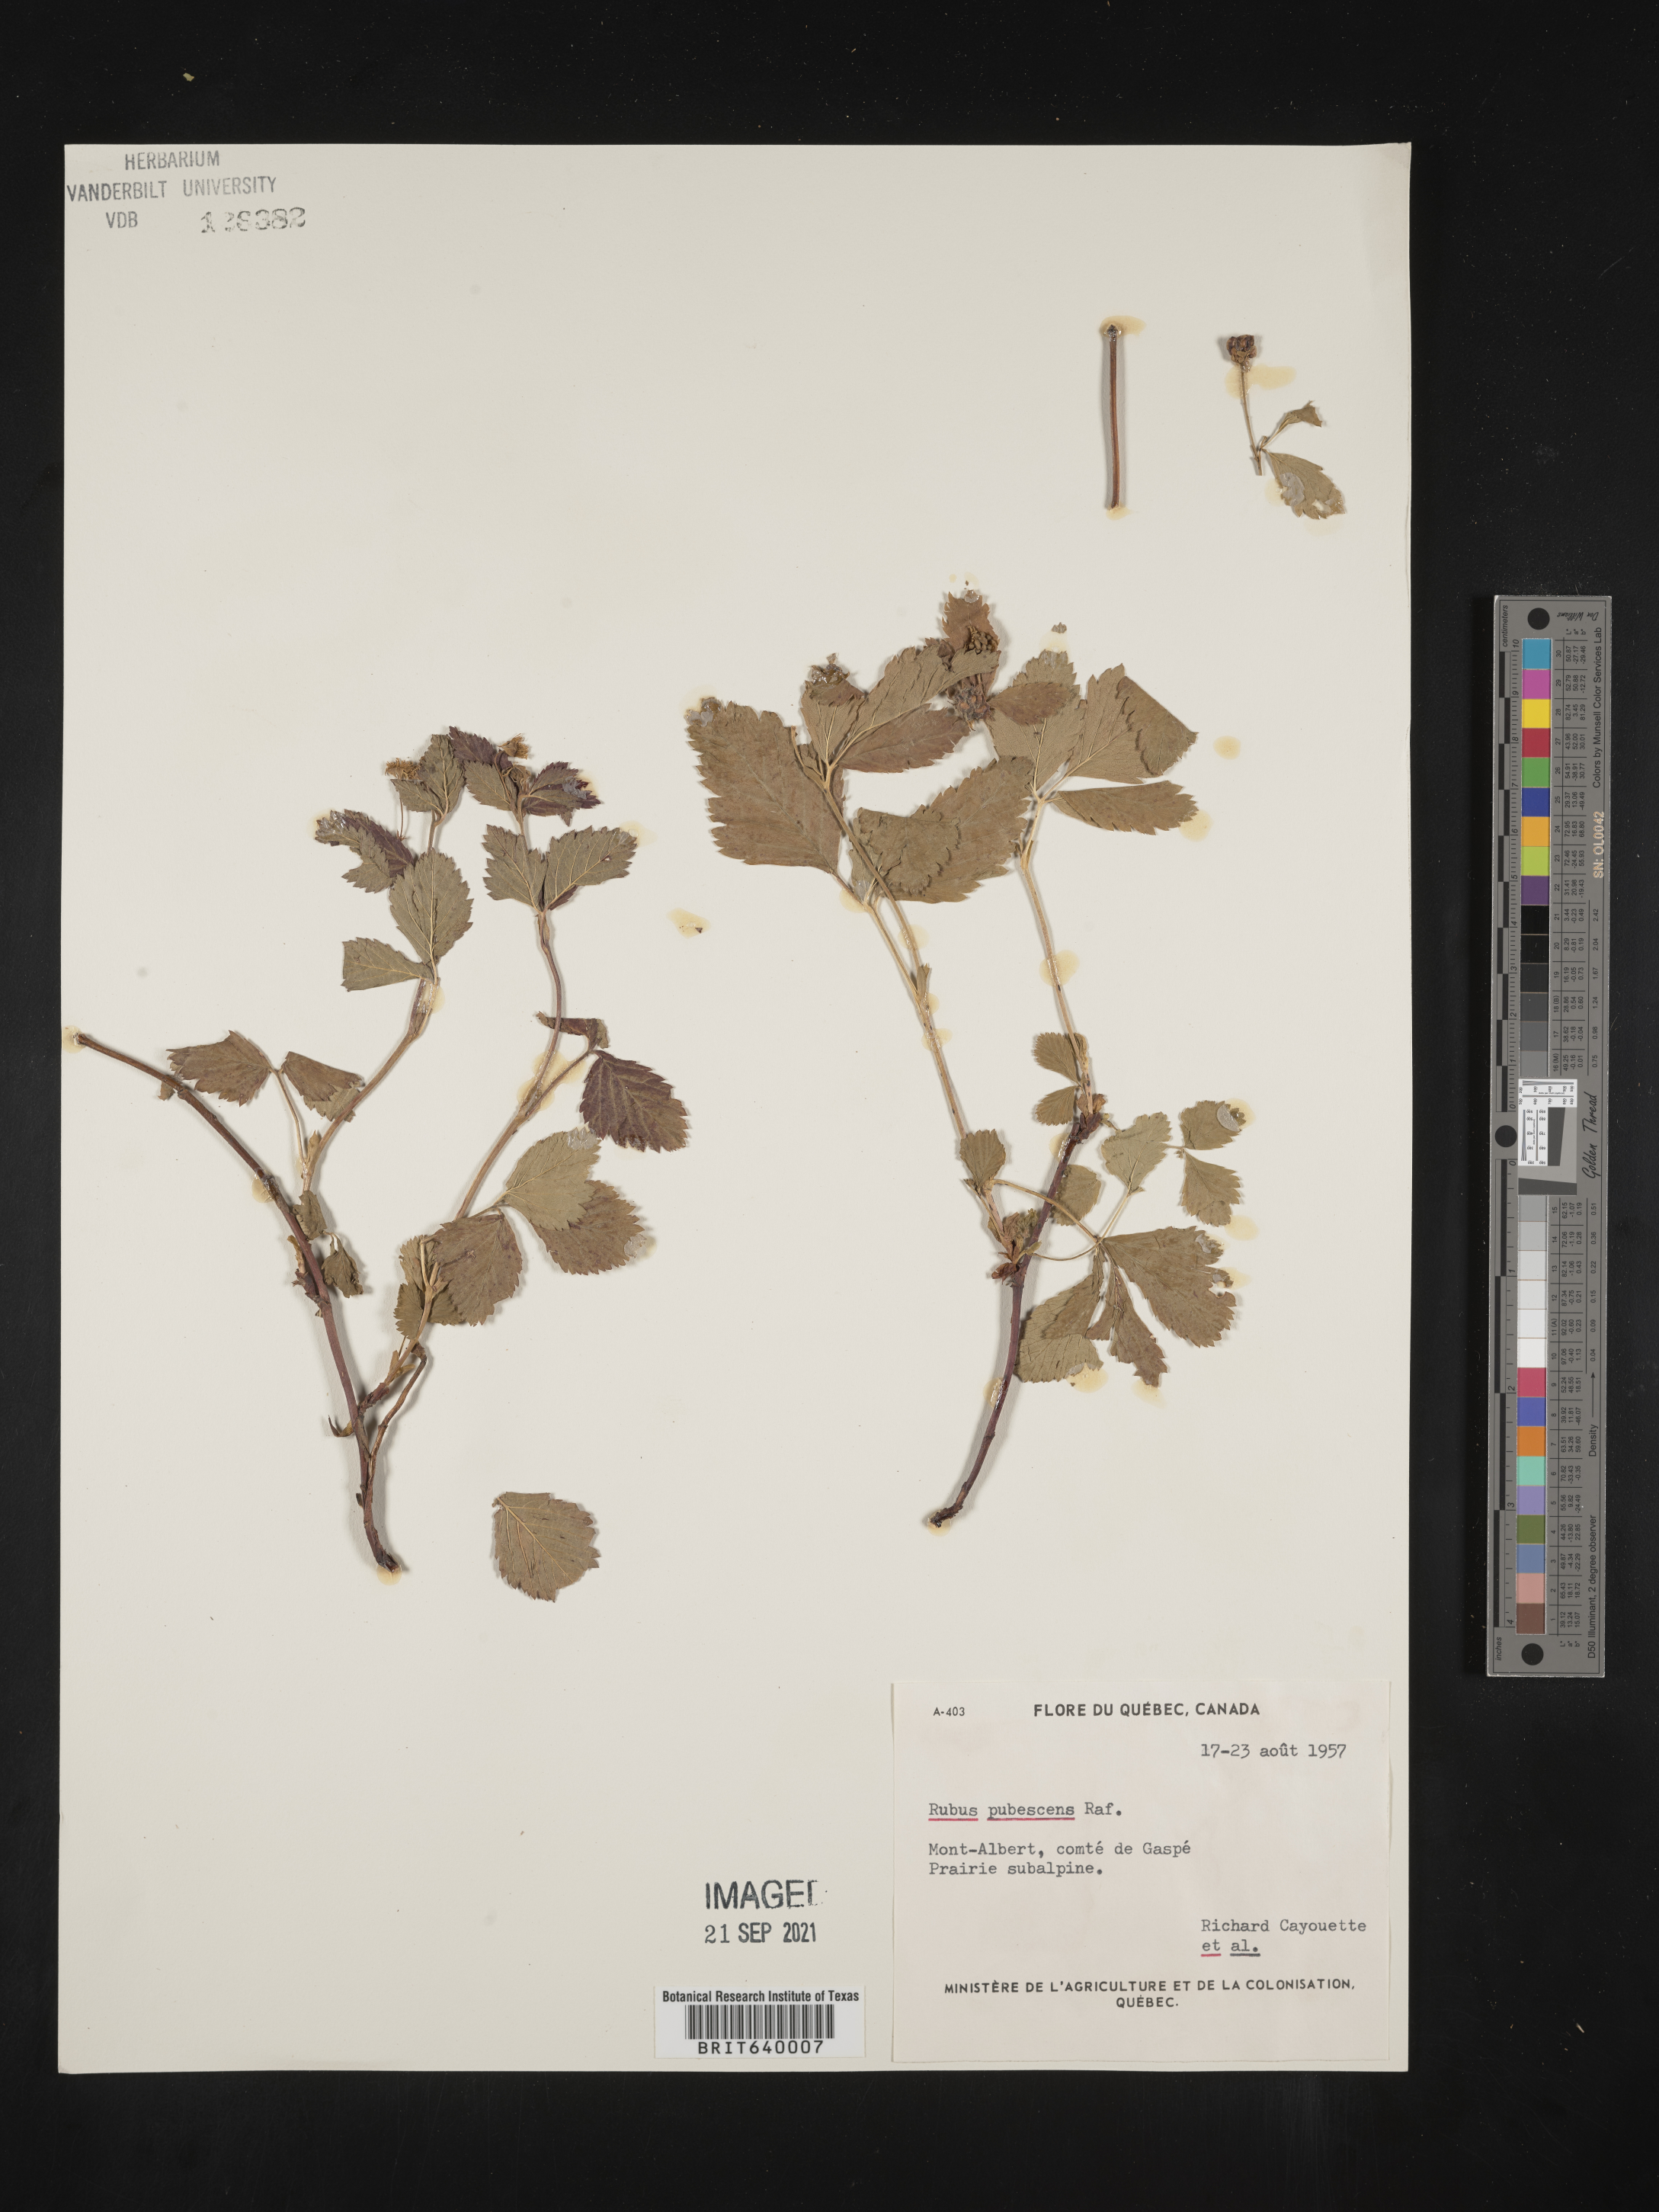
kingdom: Plantae
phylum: Tracheophyta
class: Magnoliopsida
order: Rosales
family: Rosaceae
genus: Rubus
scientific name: Rubus
